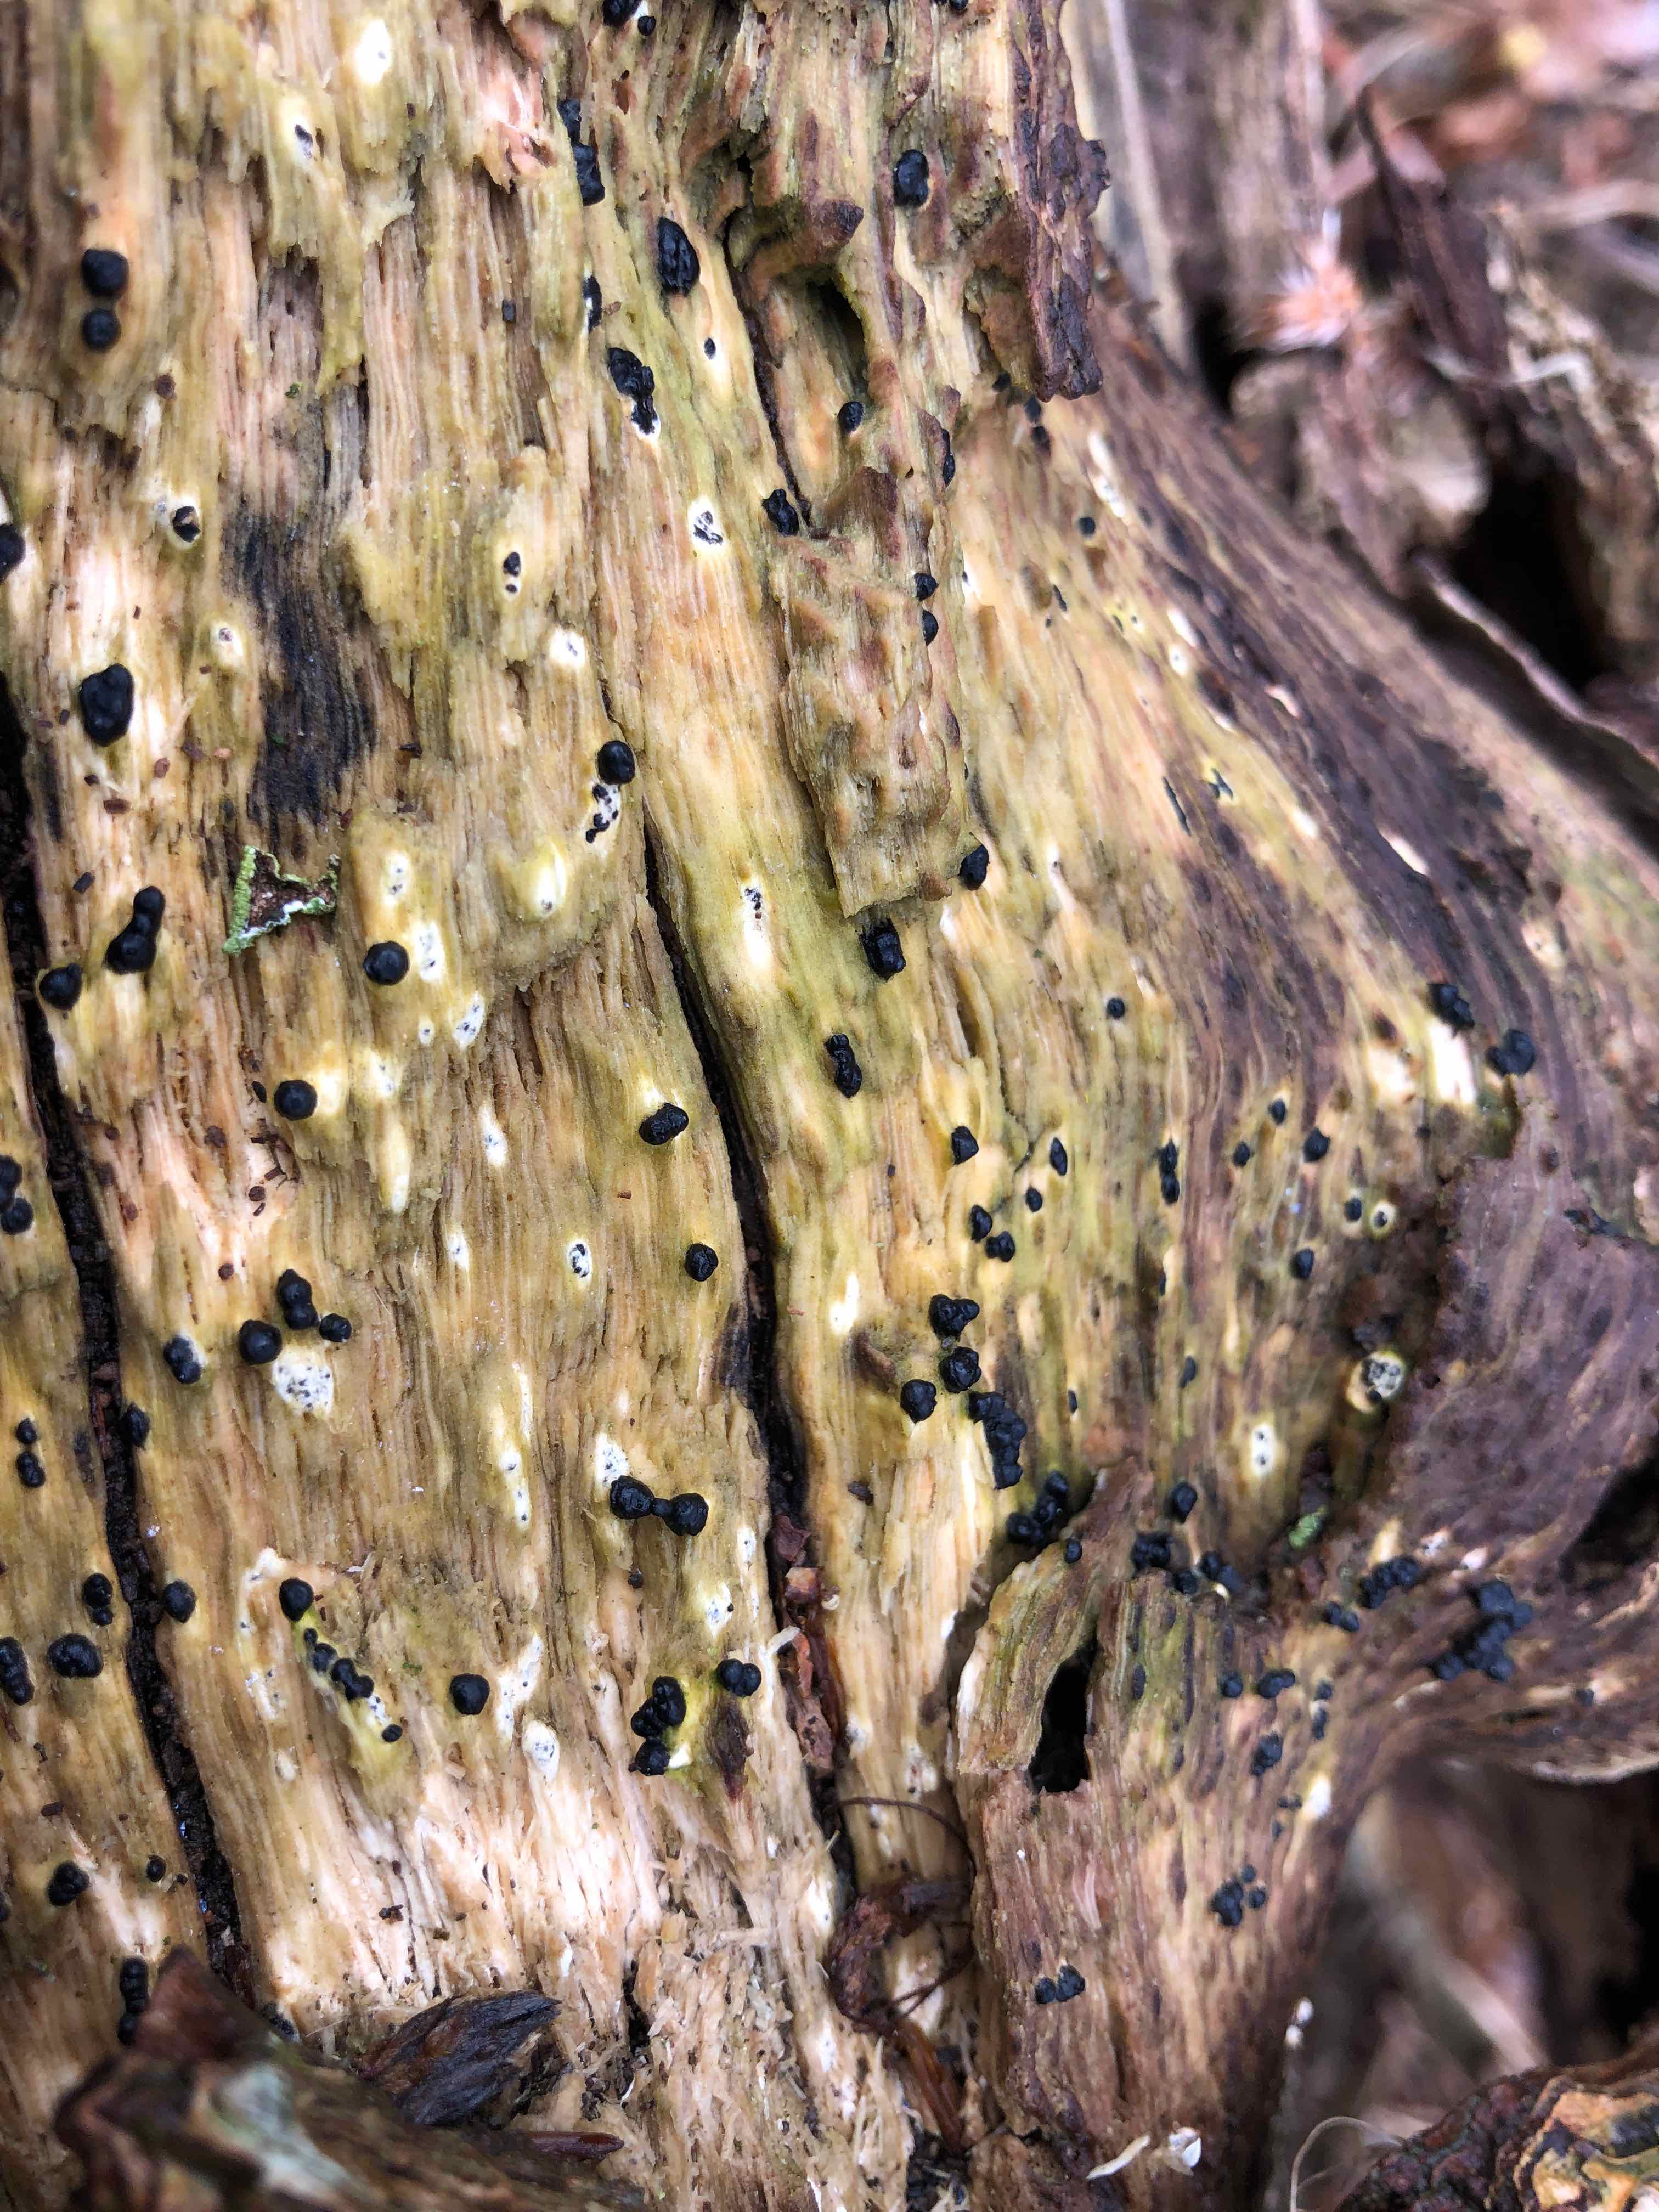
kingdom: Fungi
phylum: Ascomycota
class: Sordariomycetes
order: Xylariales
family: Xylariaceae
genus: Nemania
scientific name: Nemania confluens
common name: indsænket kuldyne
